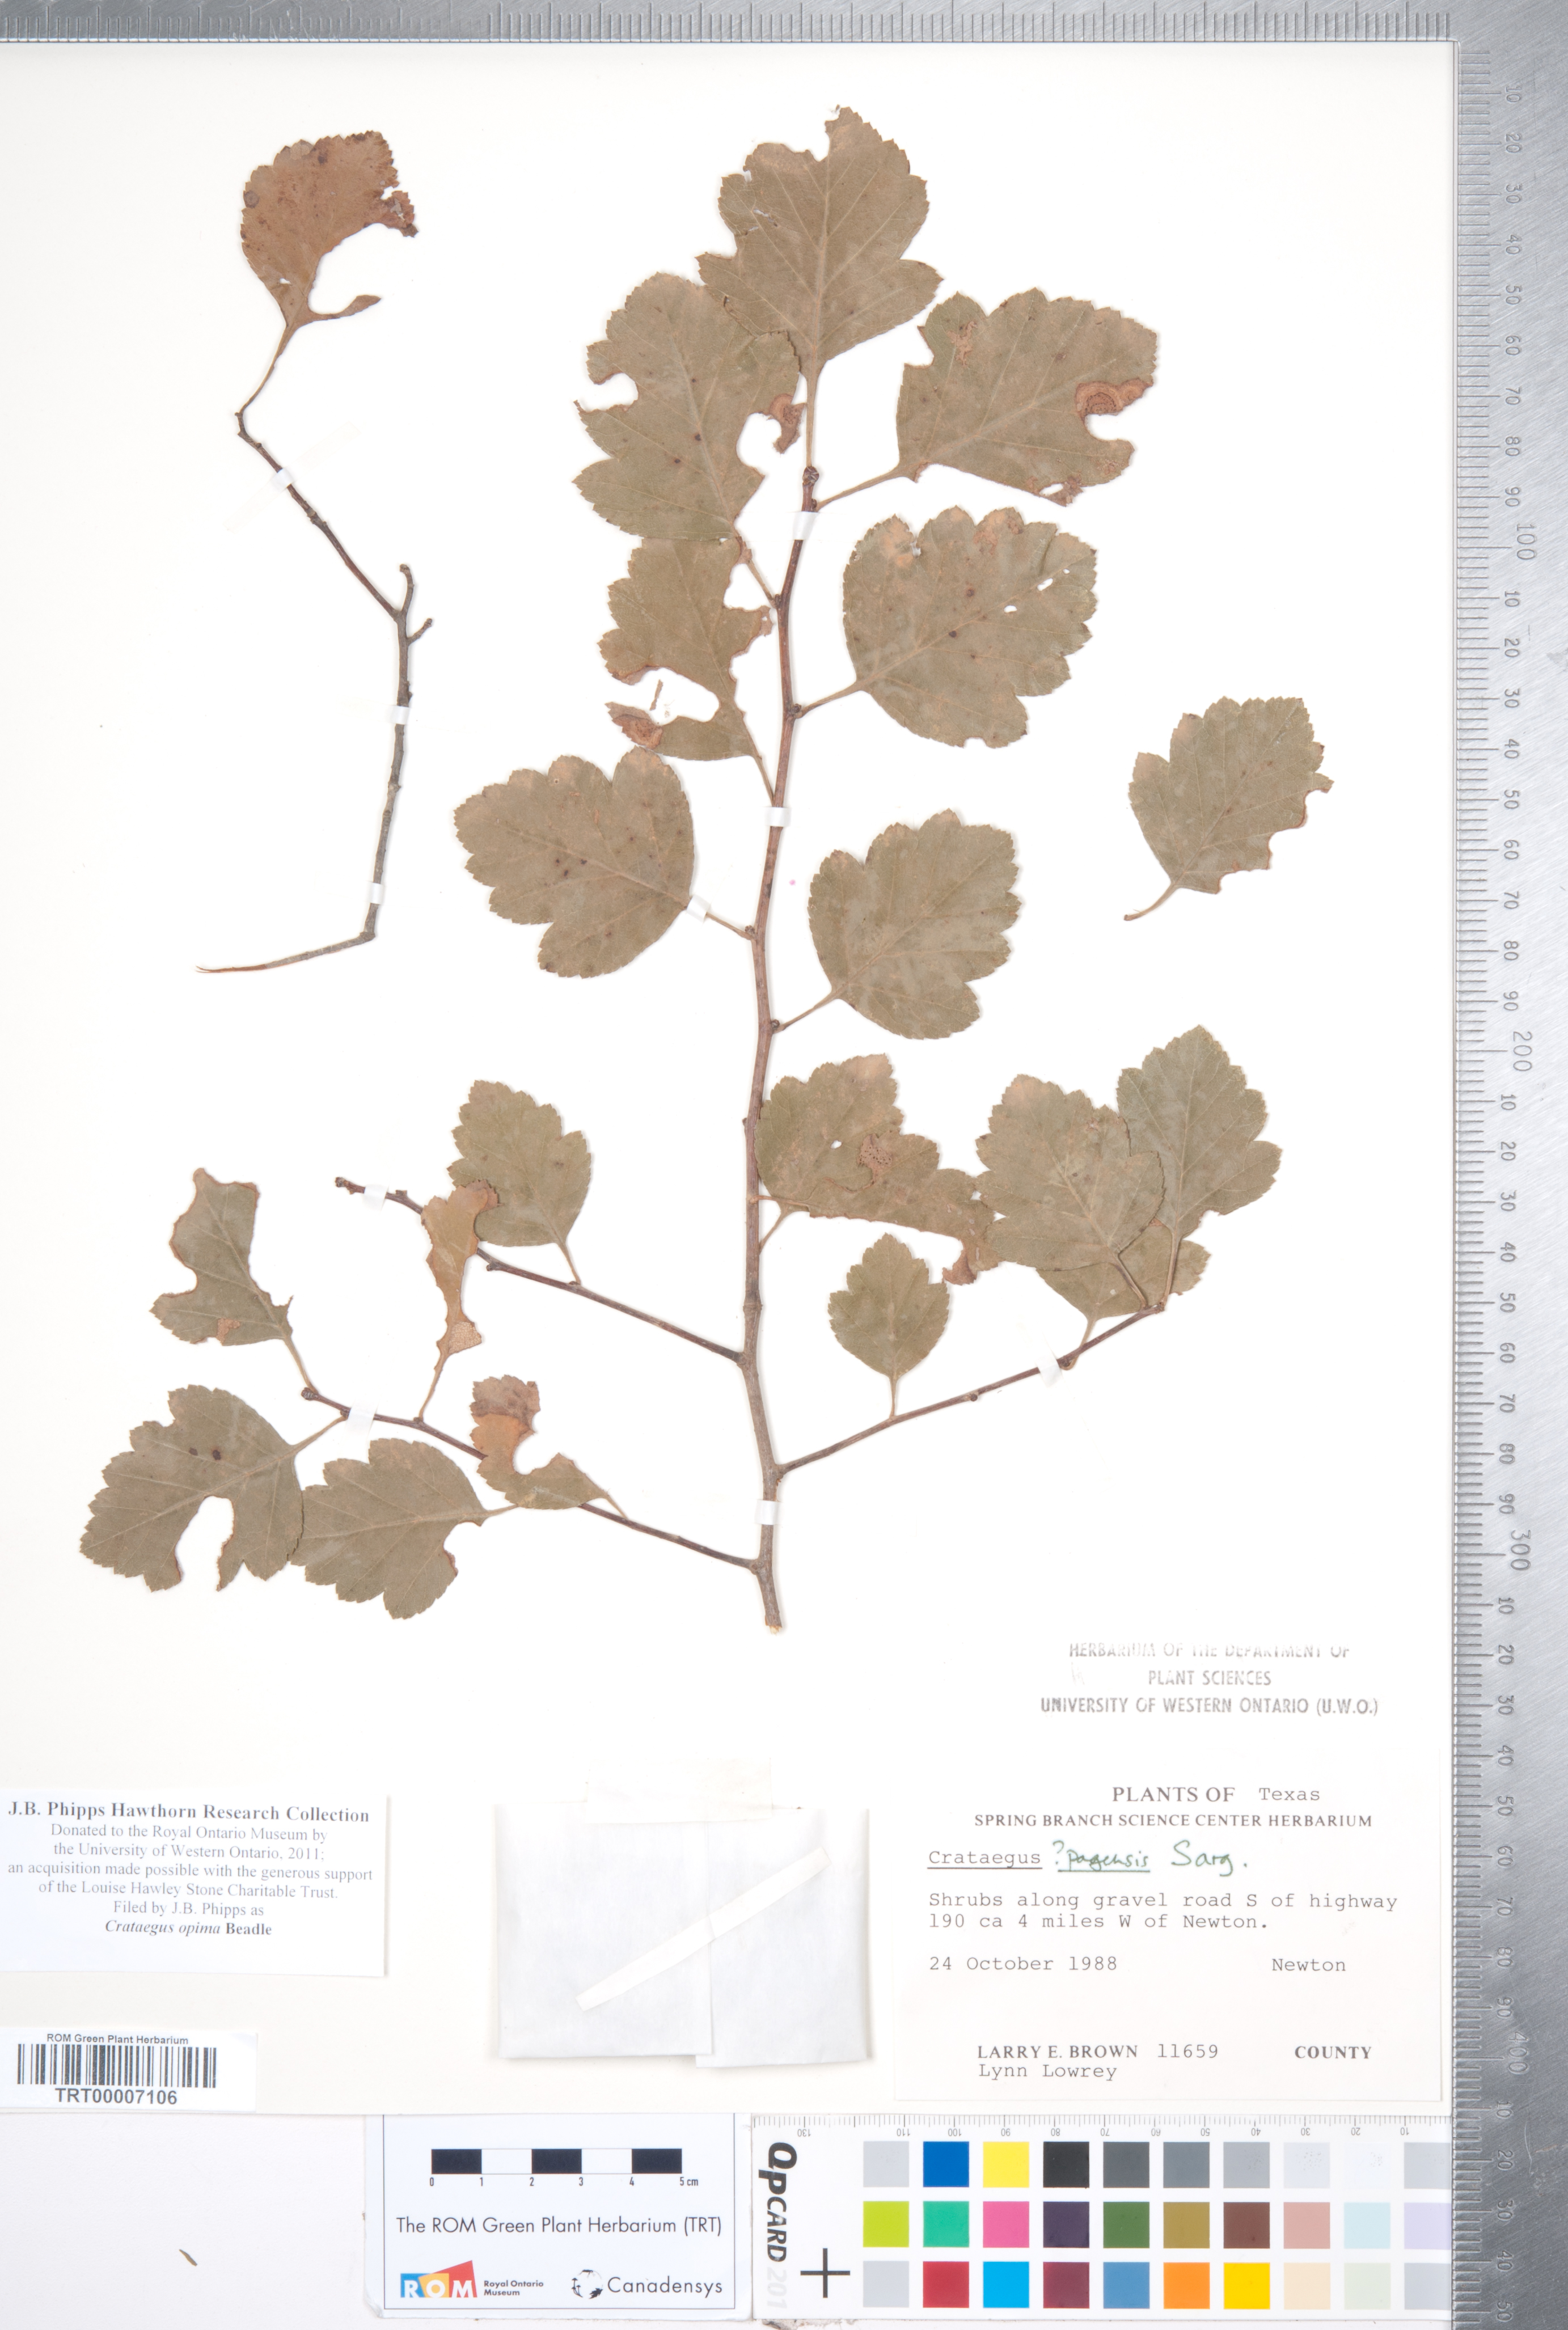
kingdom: Plantae
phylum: Tracheophyta
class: Magnoliopsida
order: Rosales
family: Rosaceae
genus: Crataegus
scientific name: Crataegus pulcherrima
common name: Beautiful hawthorn
